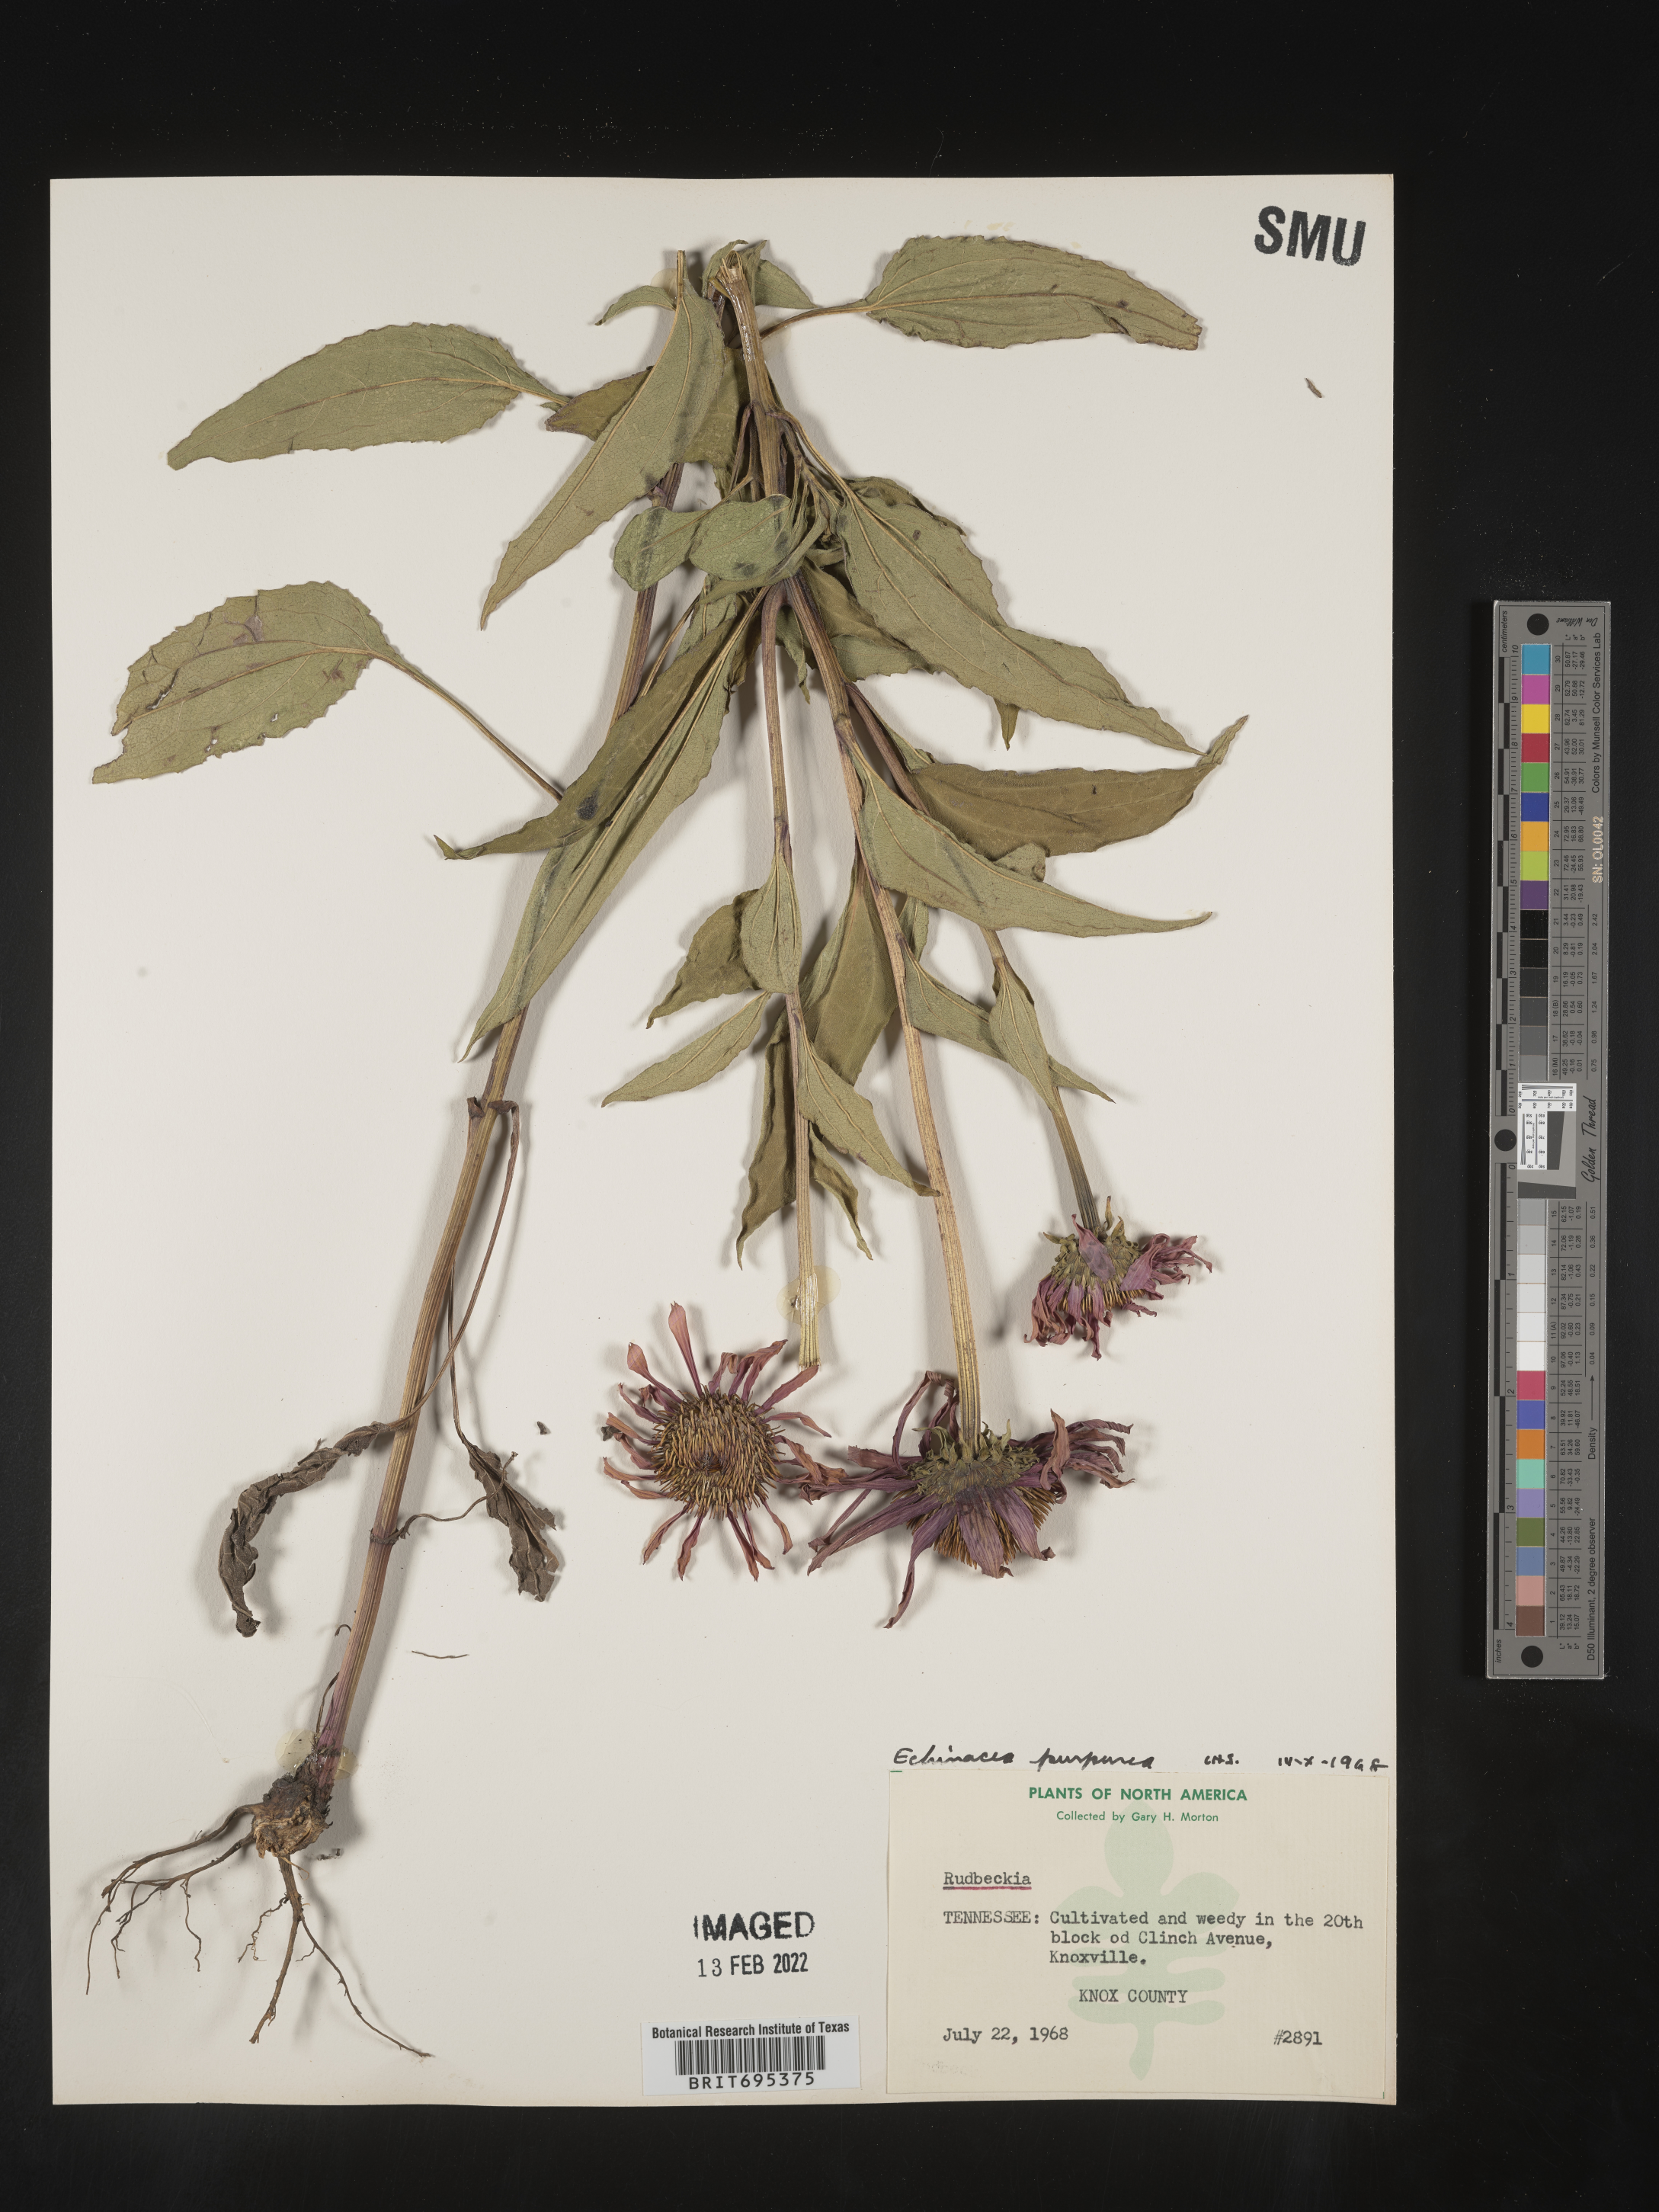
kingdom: Plantae
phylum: Tracheophyta
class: Magnoliopsida
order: Asterales
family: Asteraceae
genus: Echinacea
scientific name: Echinacea purpurea
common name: Broad-leaved purple coneflower
